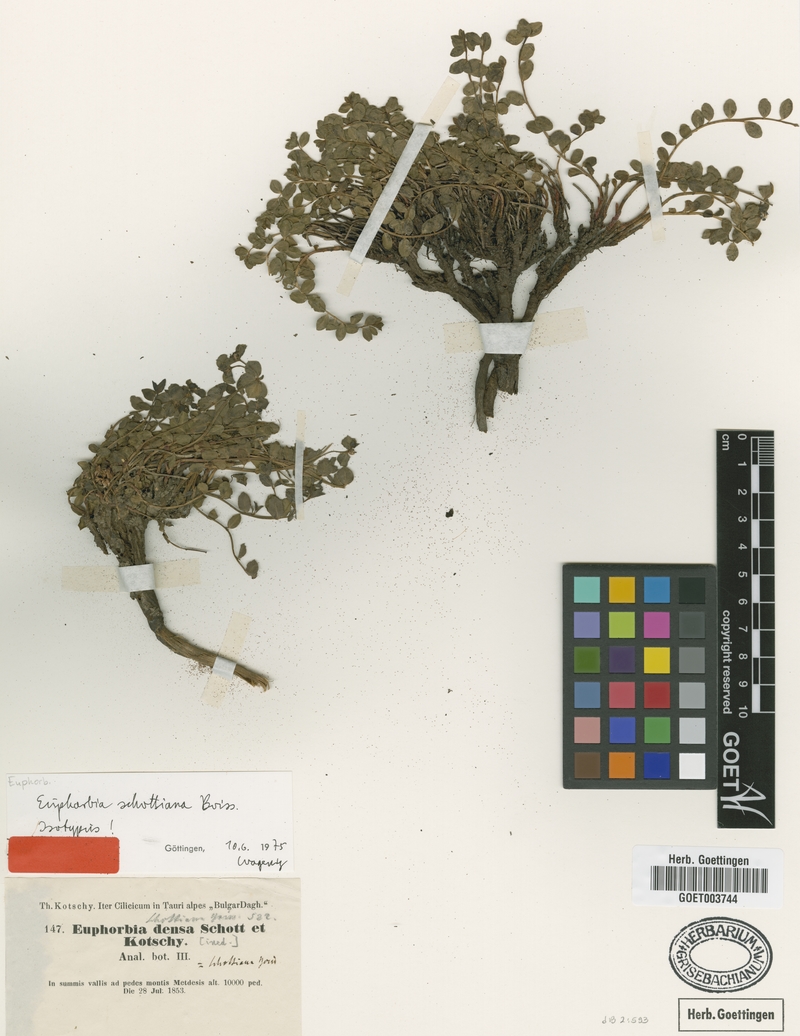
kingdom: Plantae
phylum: Tracheophyta
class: Magnoliopsida
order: Malpighiales
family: Euphorbiaceae
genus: Euphorbia
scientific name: Euphorbia schottiana
